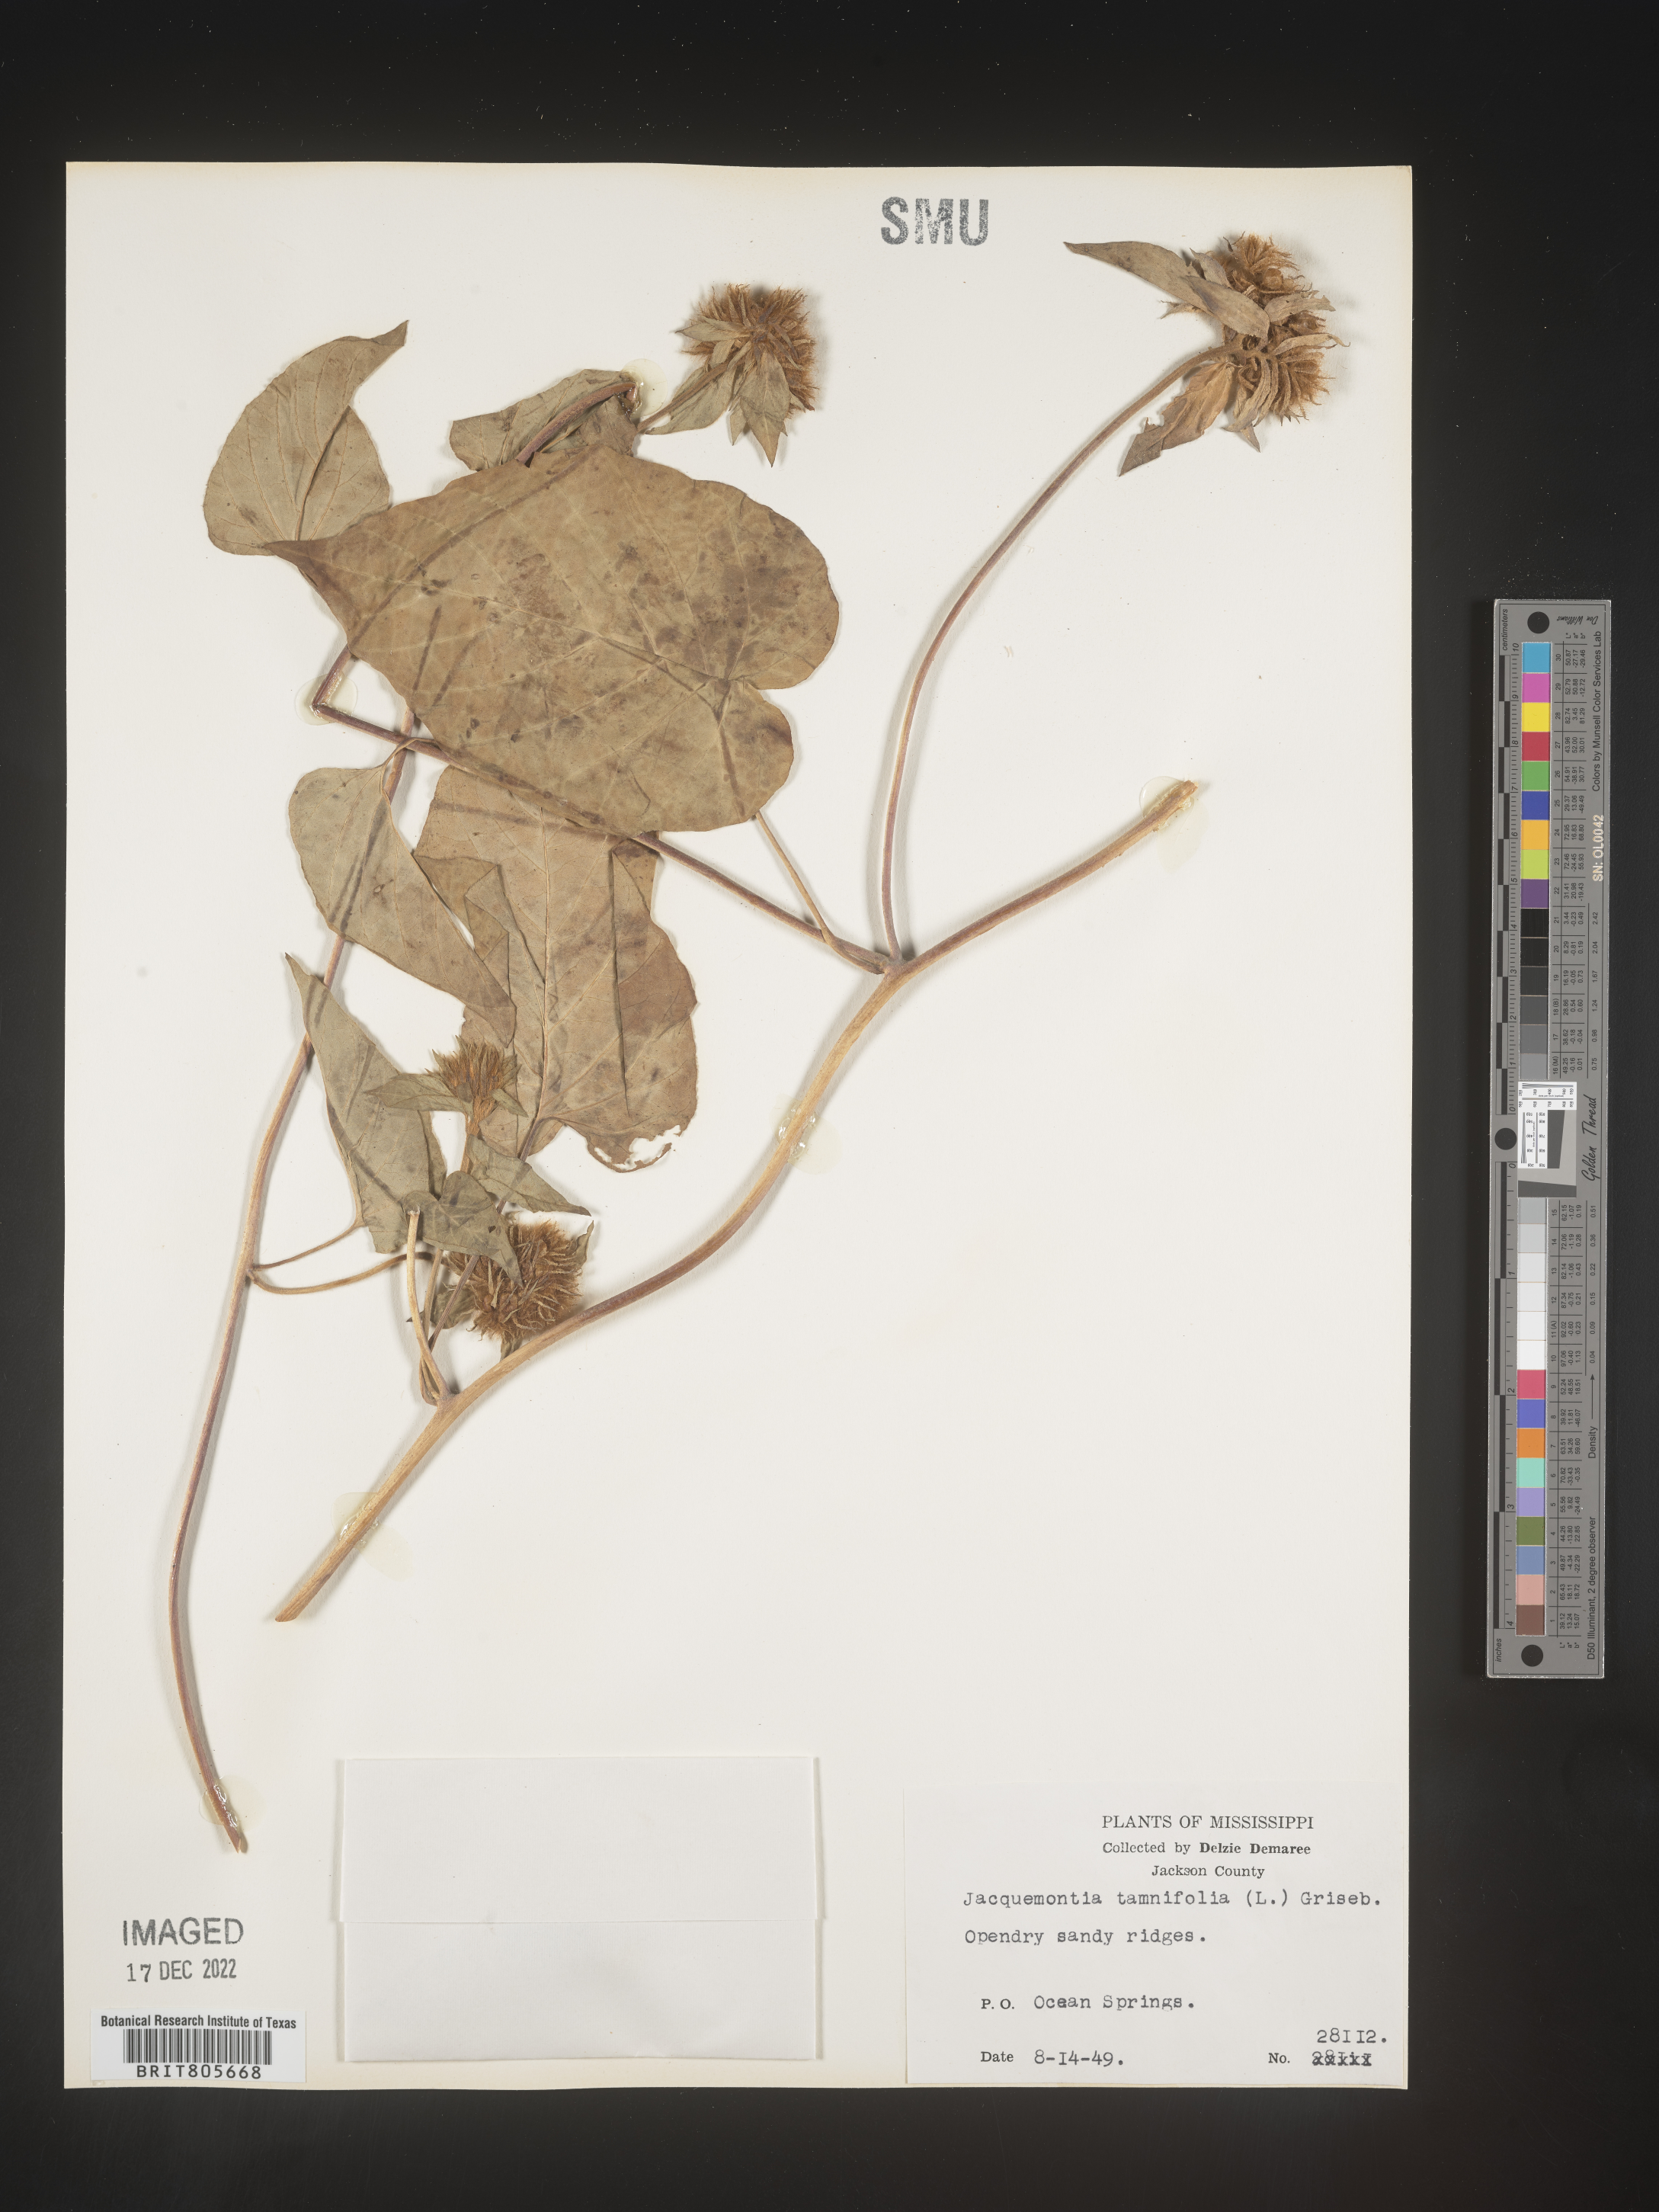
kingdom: Plantae
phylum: Tracheophyta
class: Magnoliopsida
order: Solanales
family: Convolvulaceae
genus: Jacquemontia
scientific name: Jacquemontia tamnifolia
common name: Hairy clustervine
